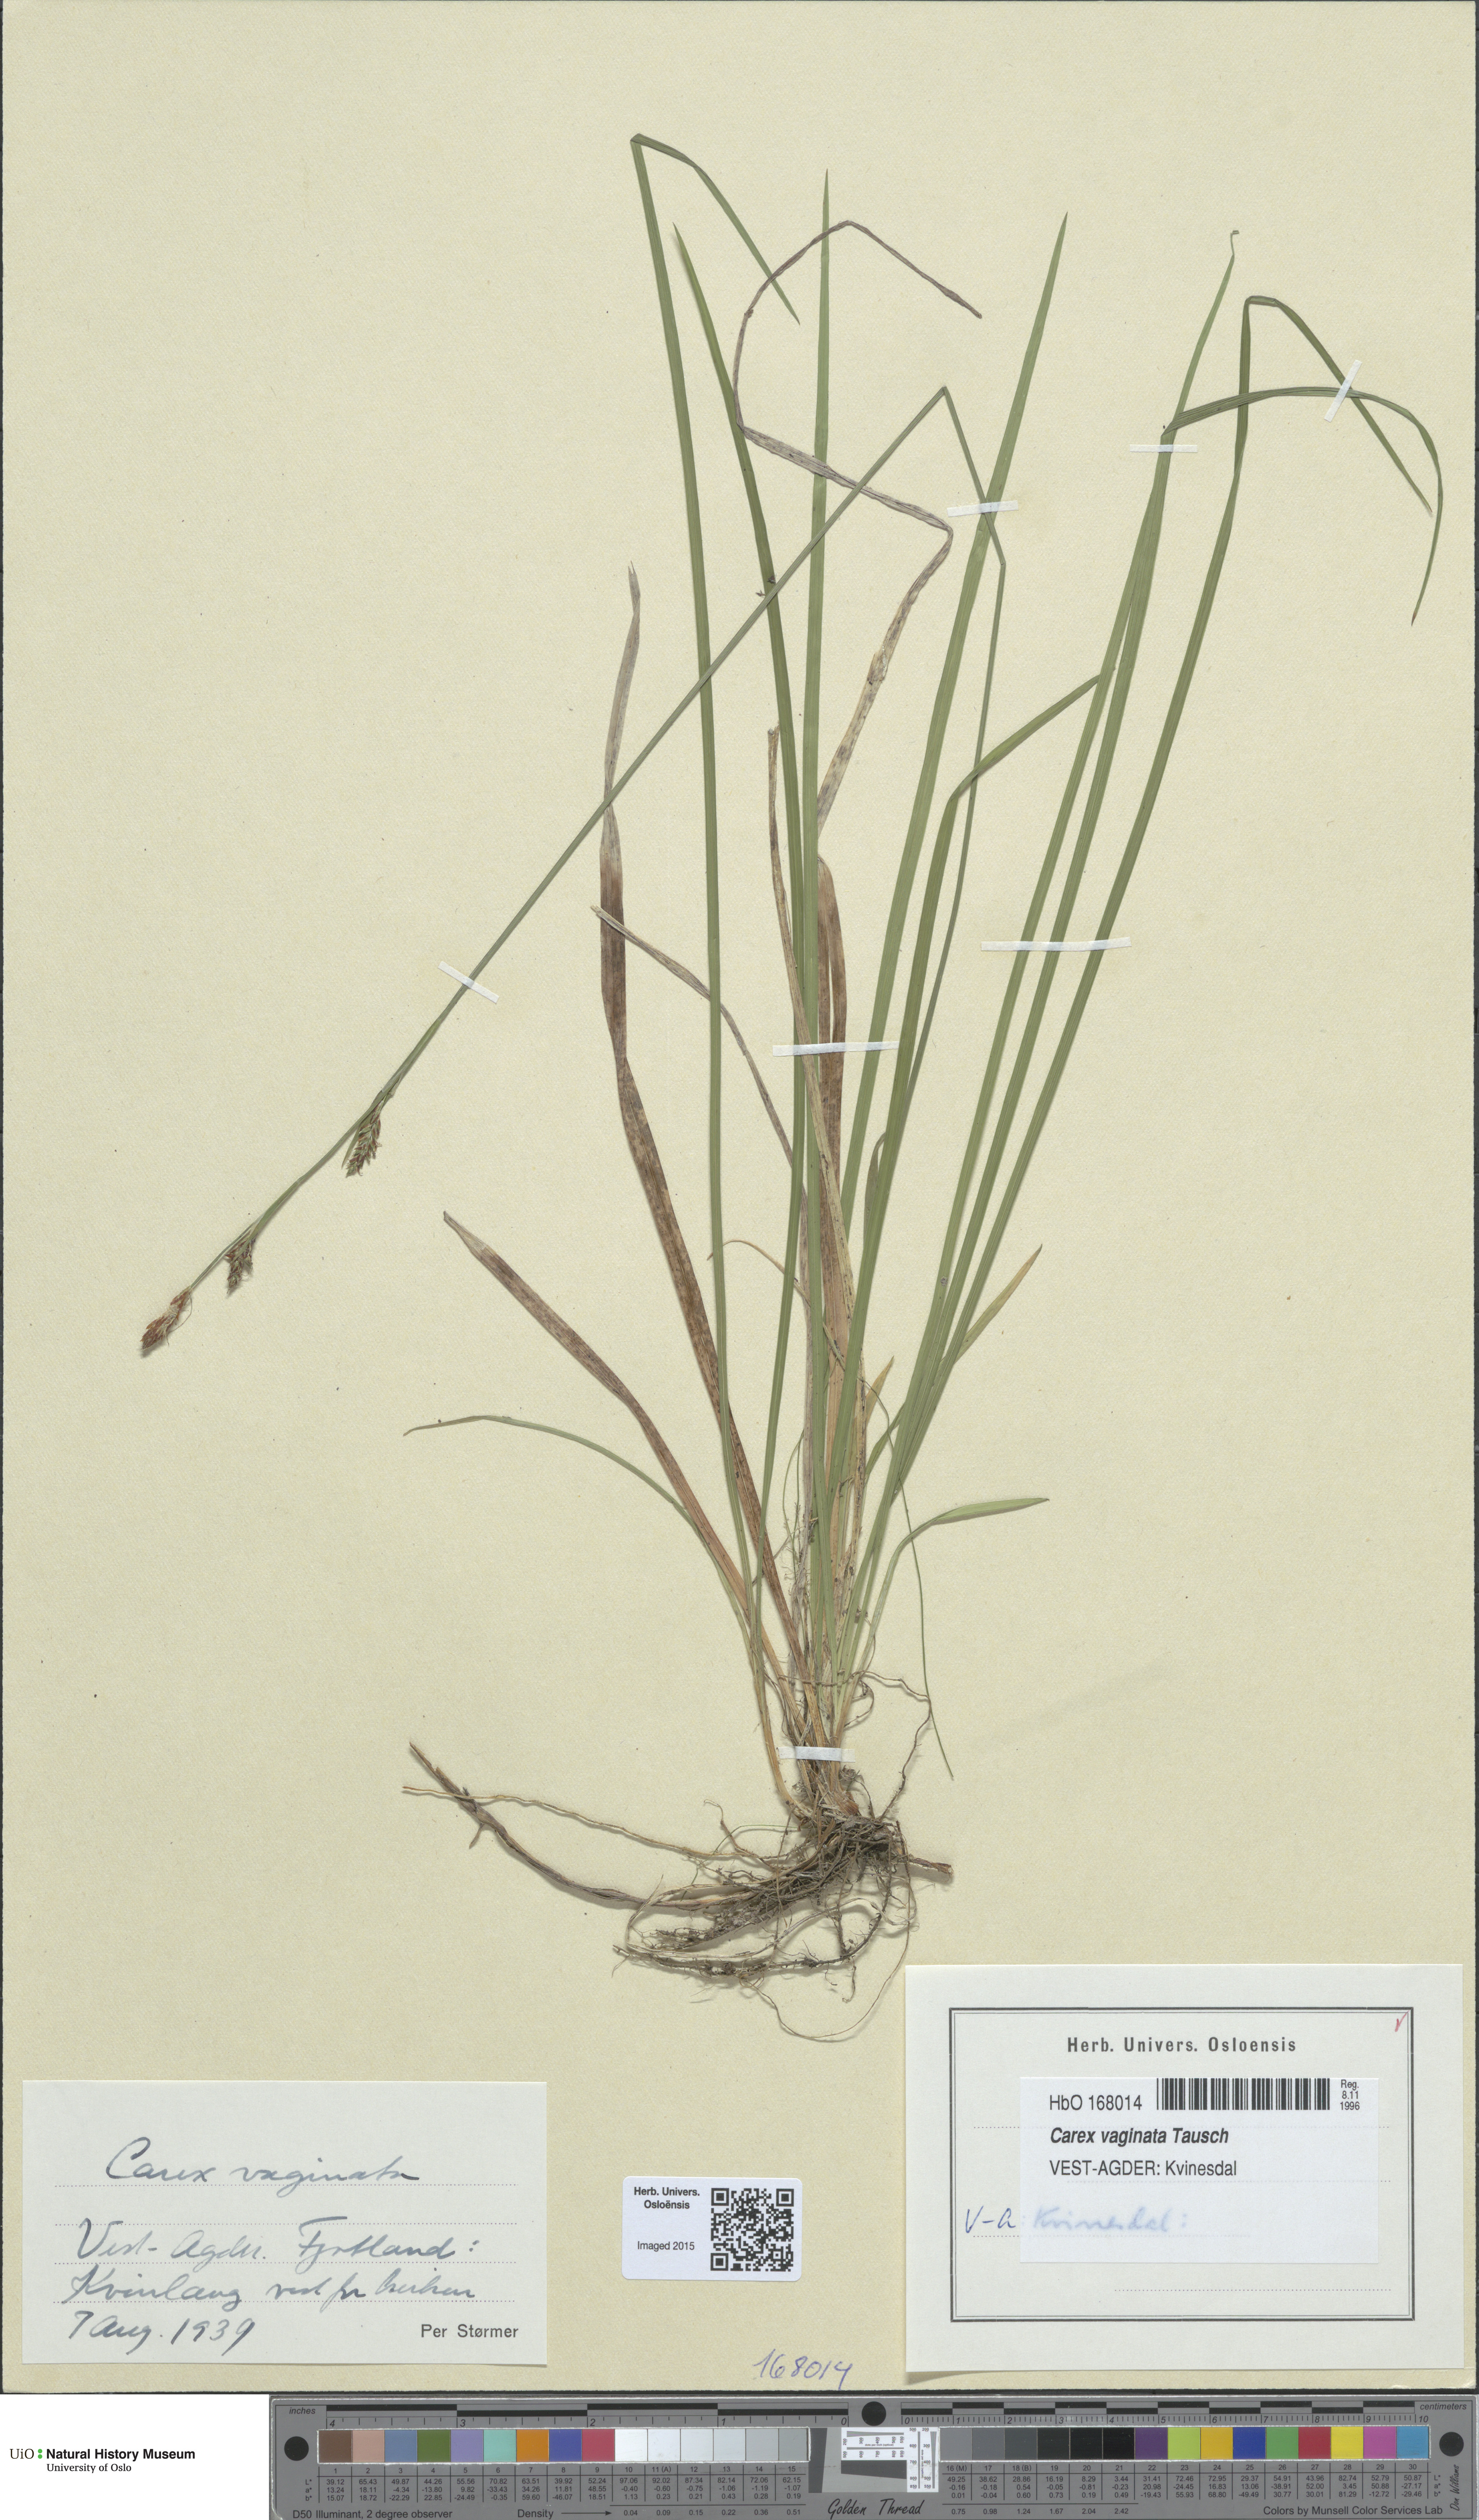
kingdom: Plantae
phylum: Tracheophyta
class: Liliopsida
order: Poales
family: Cyperaceae
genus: Carex
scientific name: Carex vaginata
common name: Sheathed sedge
